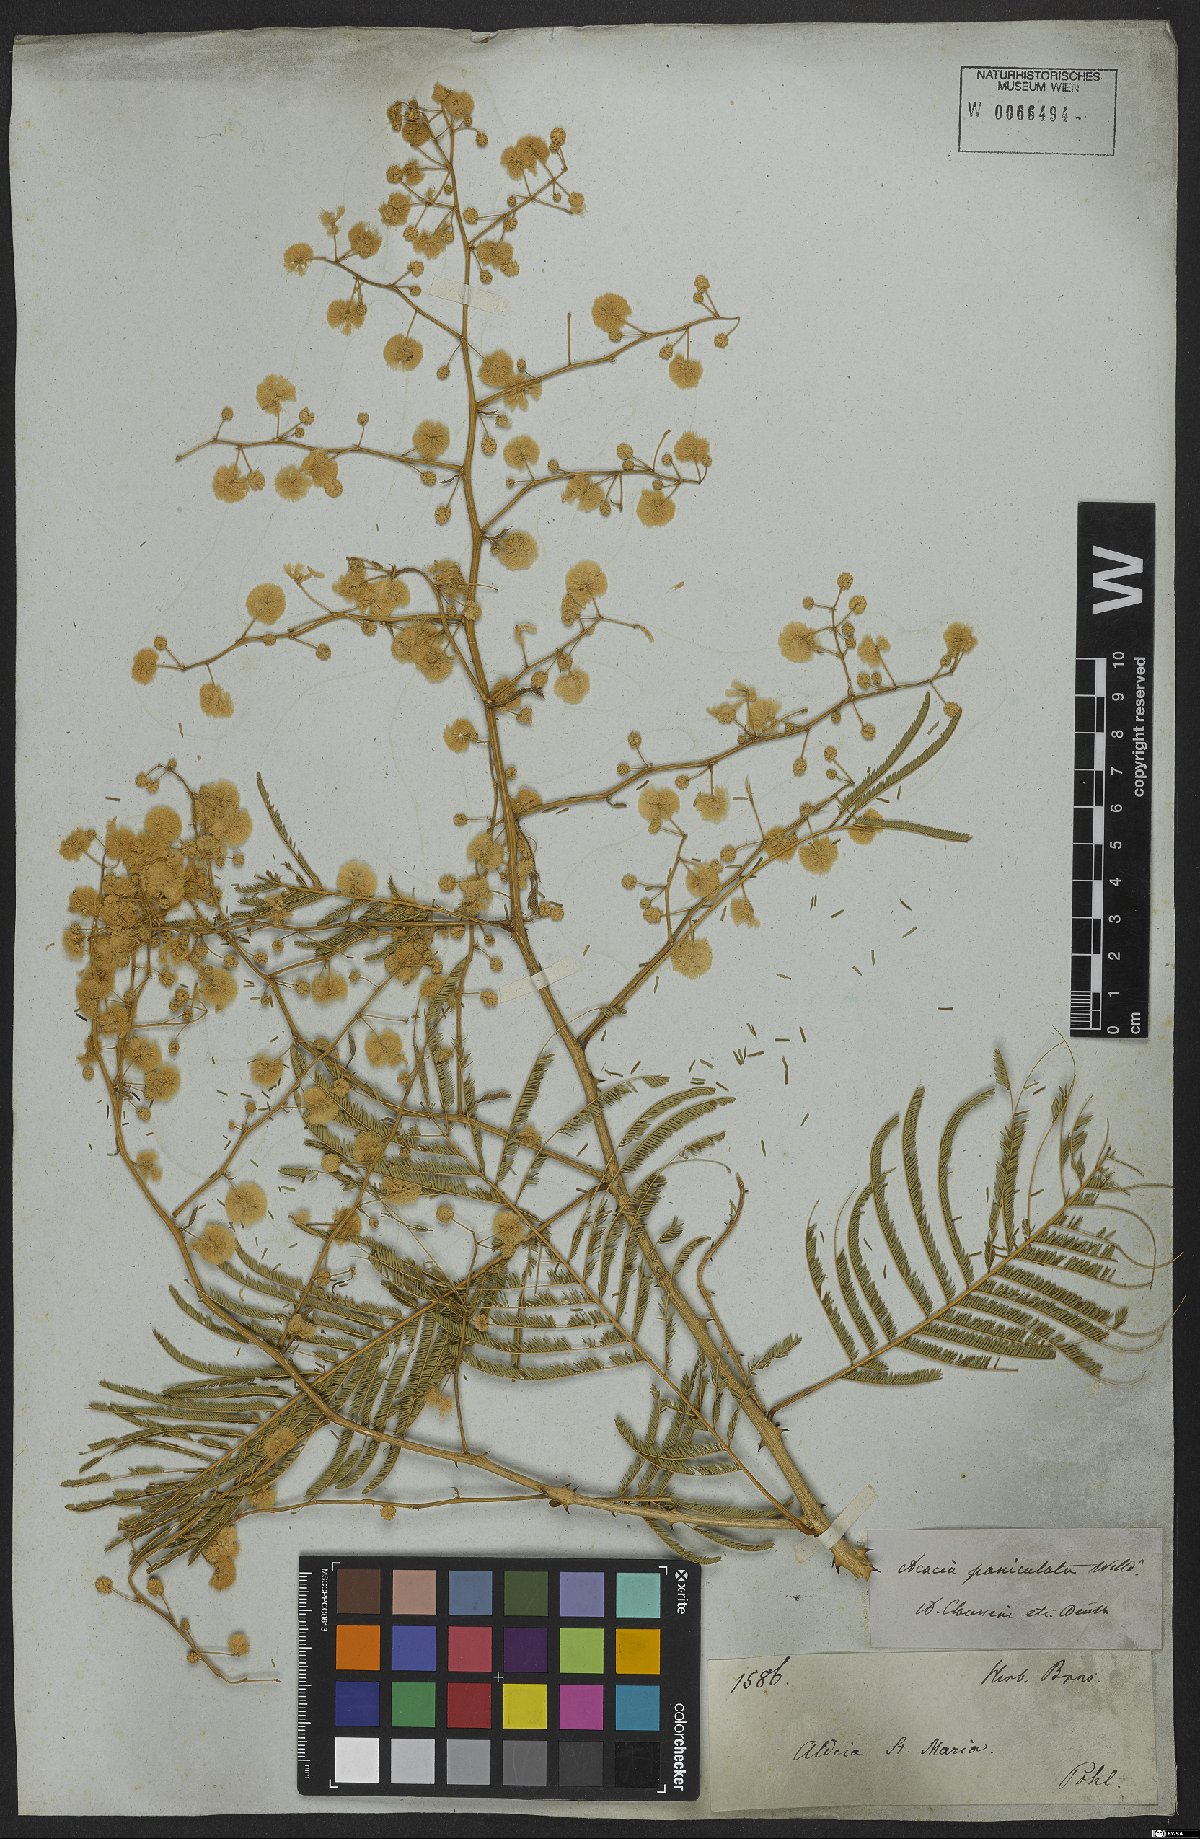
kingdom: Plantae
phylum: Tracheophyta
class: Magnoliopsida
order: Fabales
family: Fabaceae
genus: Senegalia
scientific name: Senegalia paniculata
